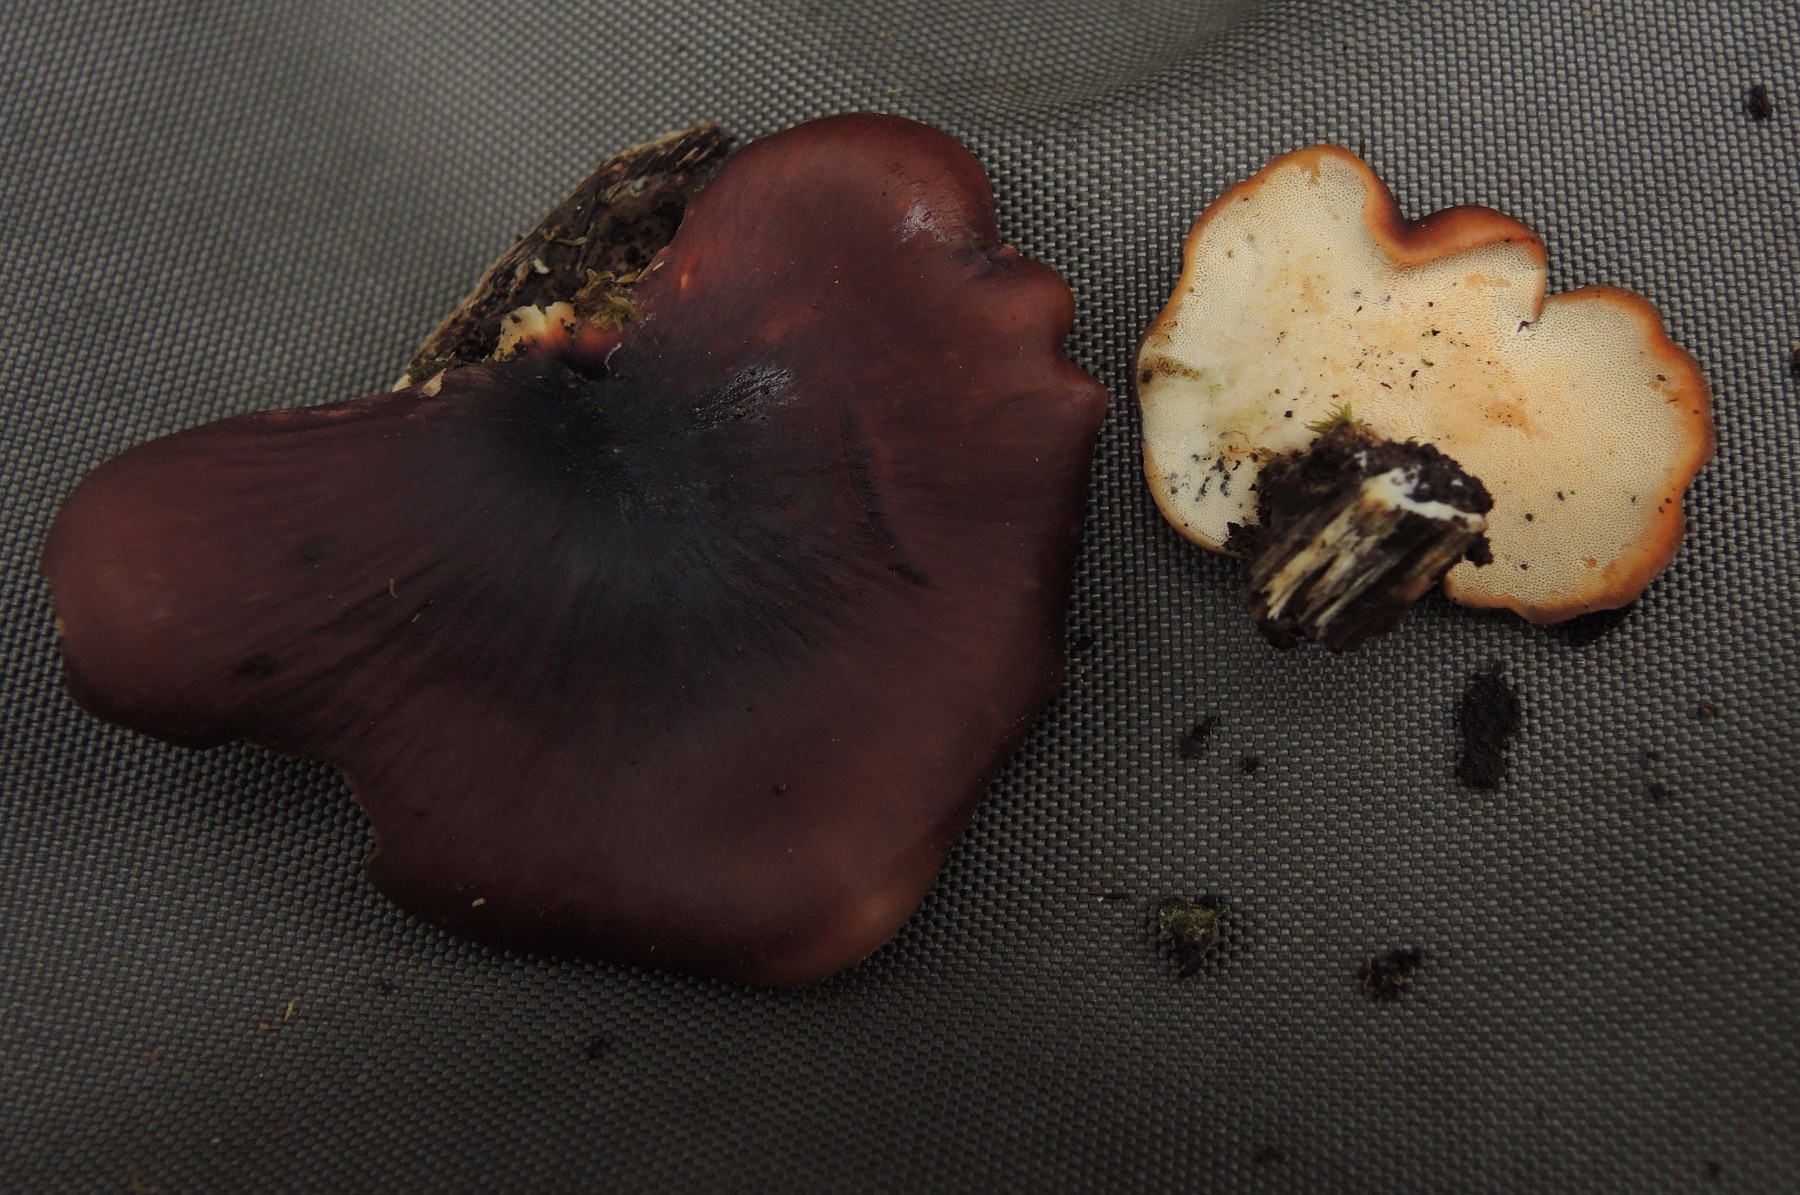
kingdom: Fungi
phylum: Basidiomycota
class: Agaricomycetes
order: Polyporales
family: Polyporaceae
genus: Picipes
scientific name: Picipes
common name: stilkporesvamp
